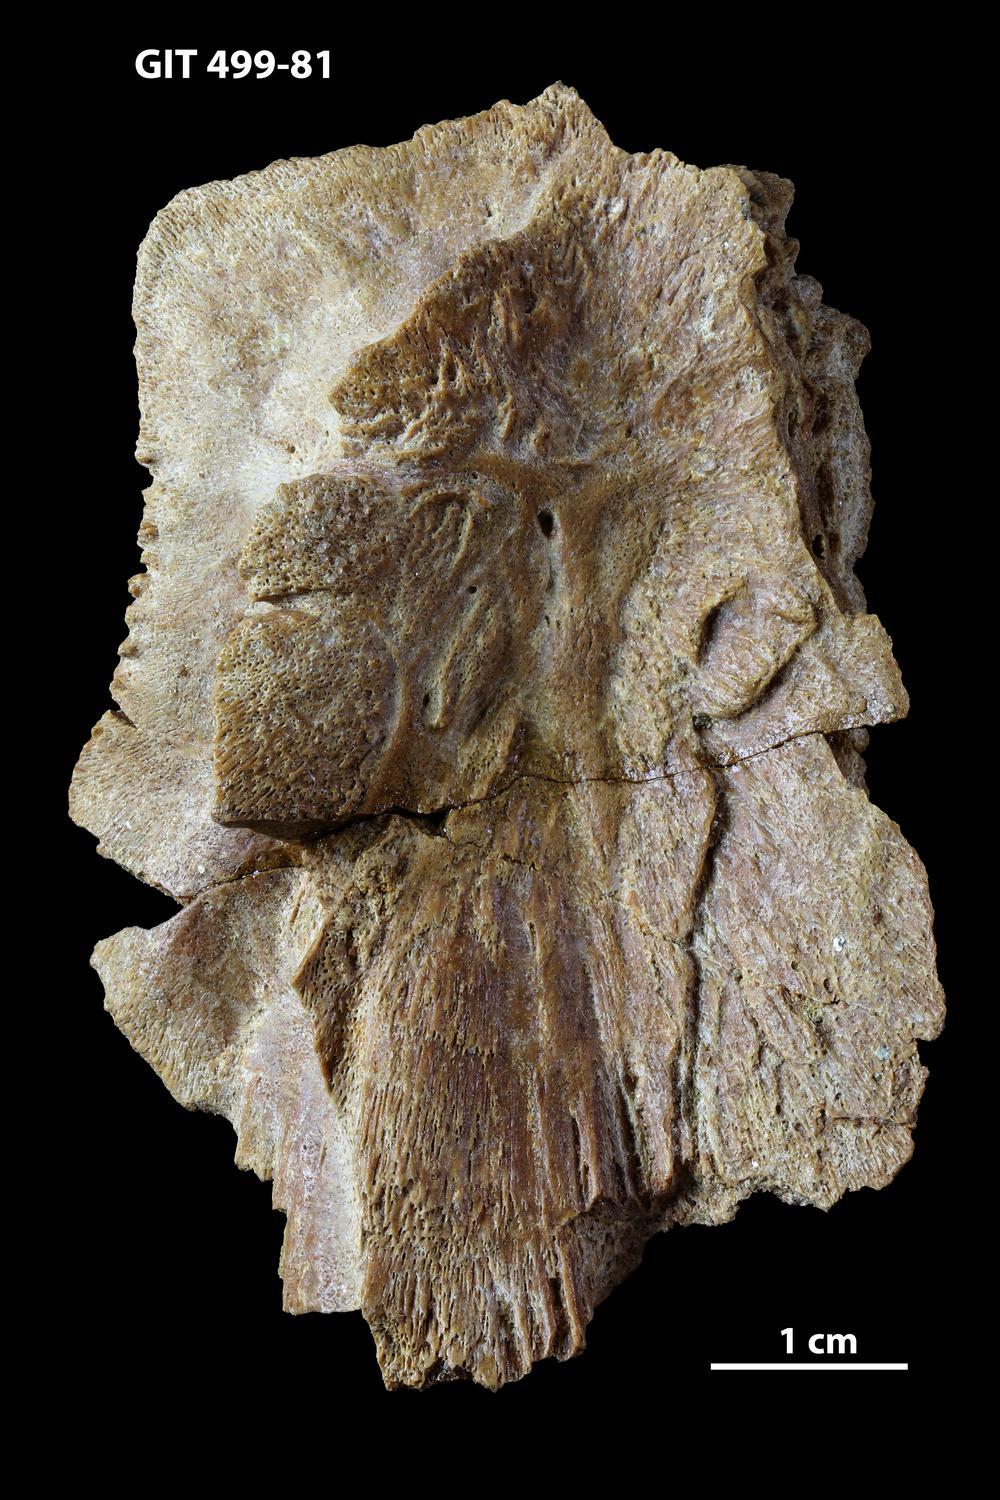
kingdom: Animalia
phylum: Chordata
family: Holoptychiidae
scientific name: Holoptychiidae
